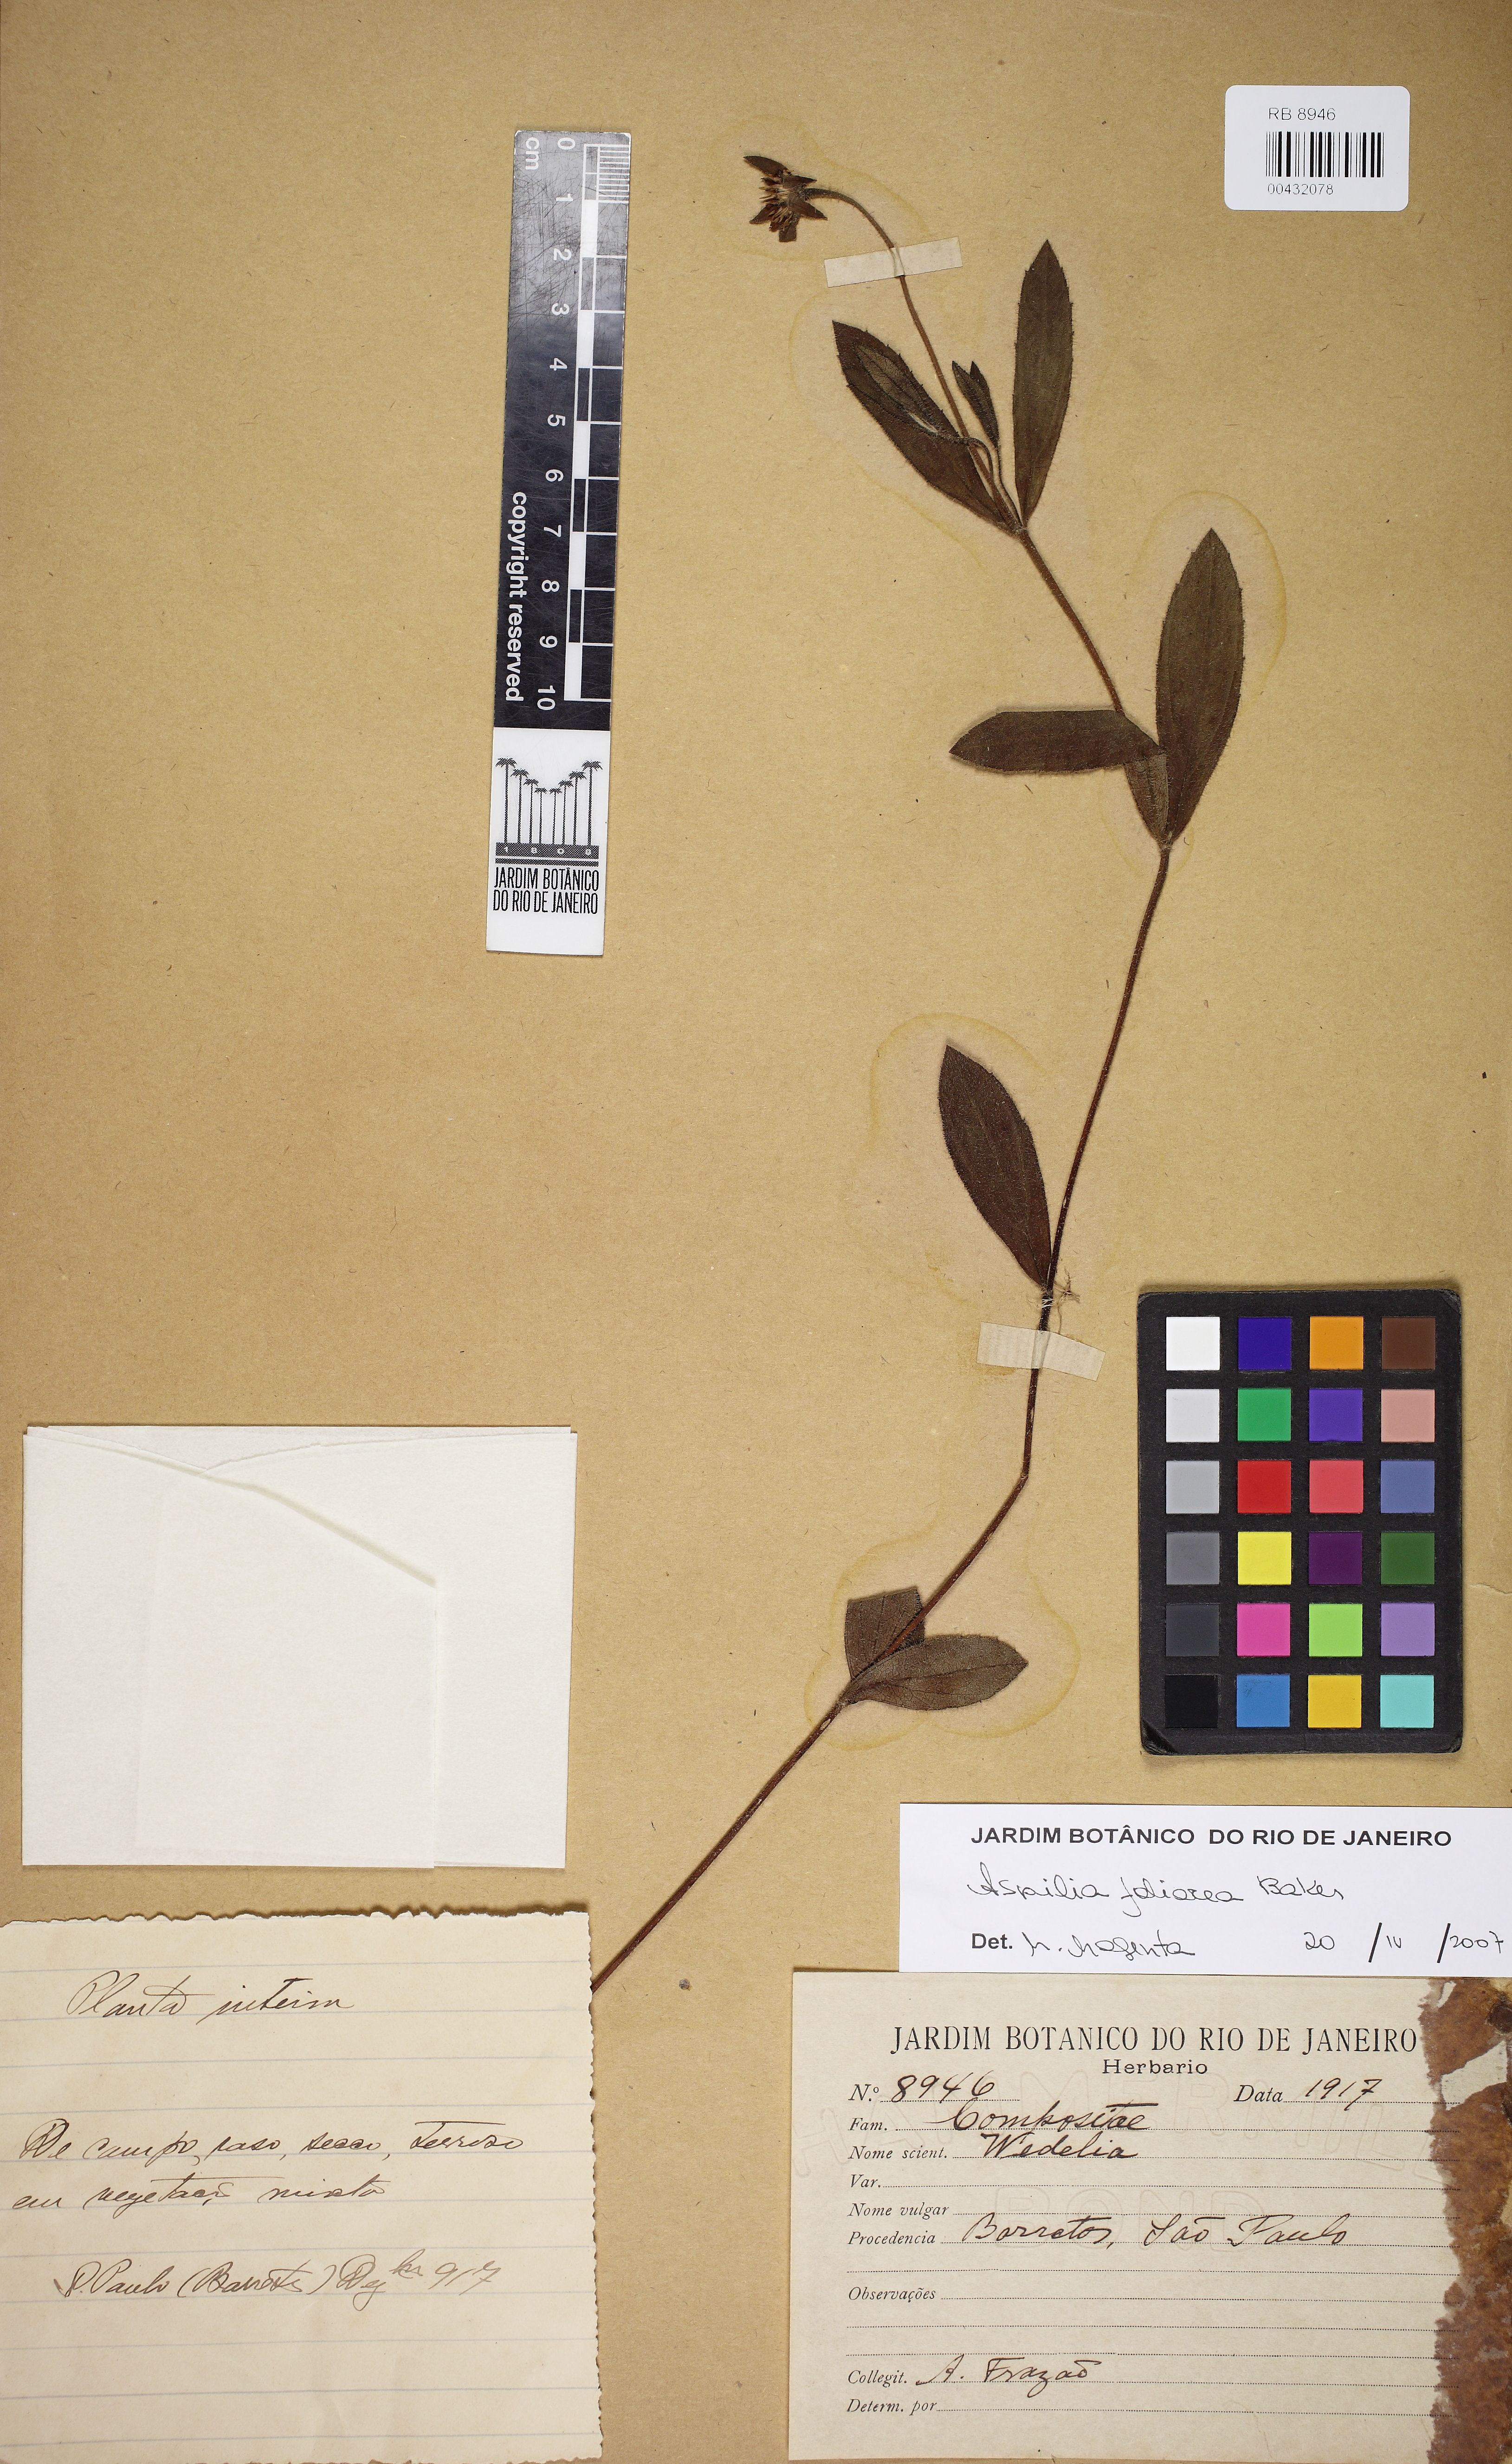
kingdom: Plantae
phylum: Tracheophyta
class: Magnoliopsida
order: Asterales
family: Asteraceae
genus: Wedelia
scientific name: Wedelia foliacea
